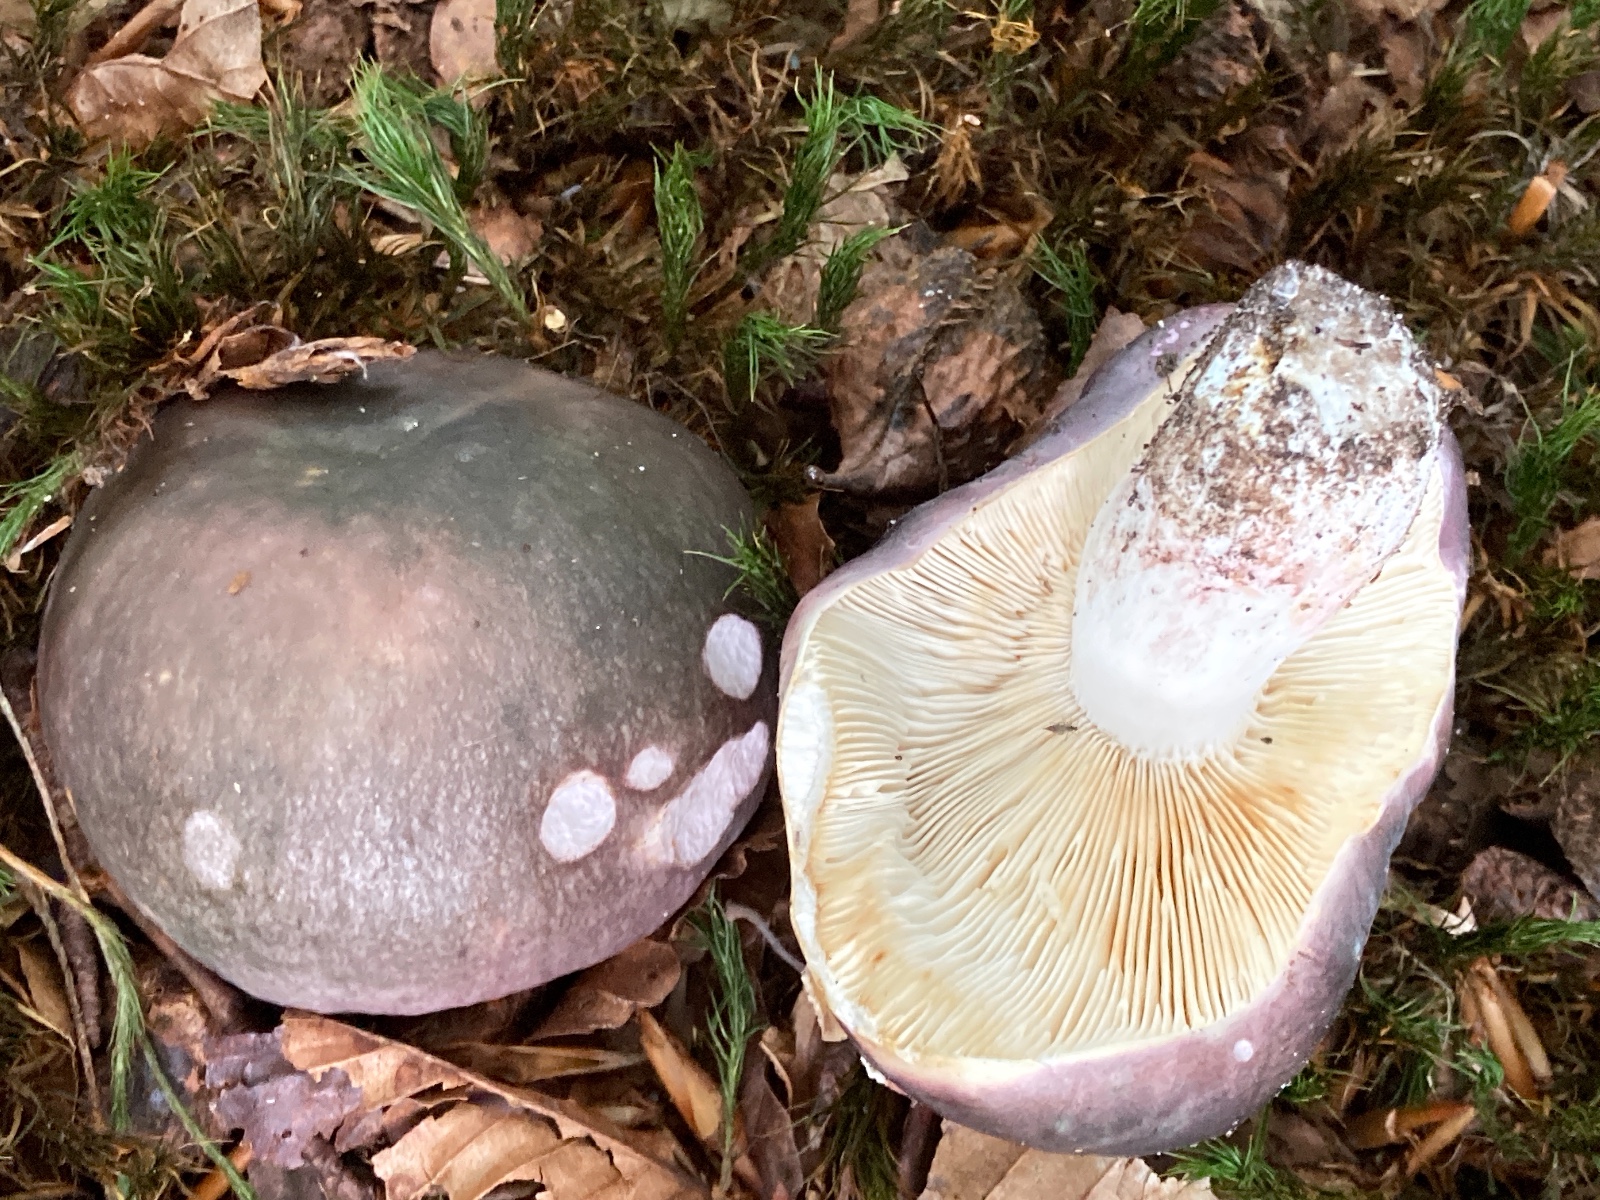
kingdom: Fungi
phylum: Basidiomycota
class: Agaricomycetes
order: Russulales
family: Russulaceae
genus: Russula
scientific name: Russula cyanoxantha
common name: broget skørhat
